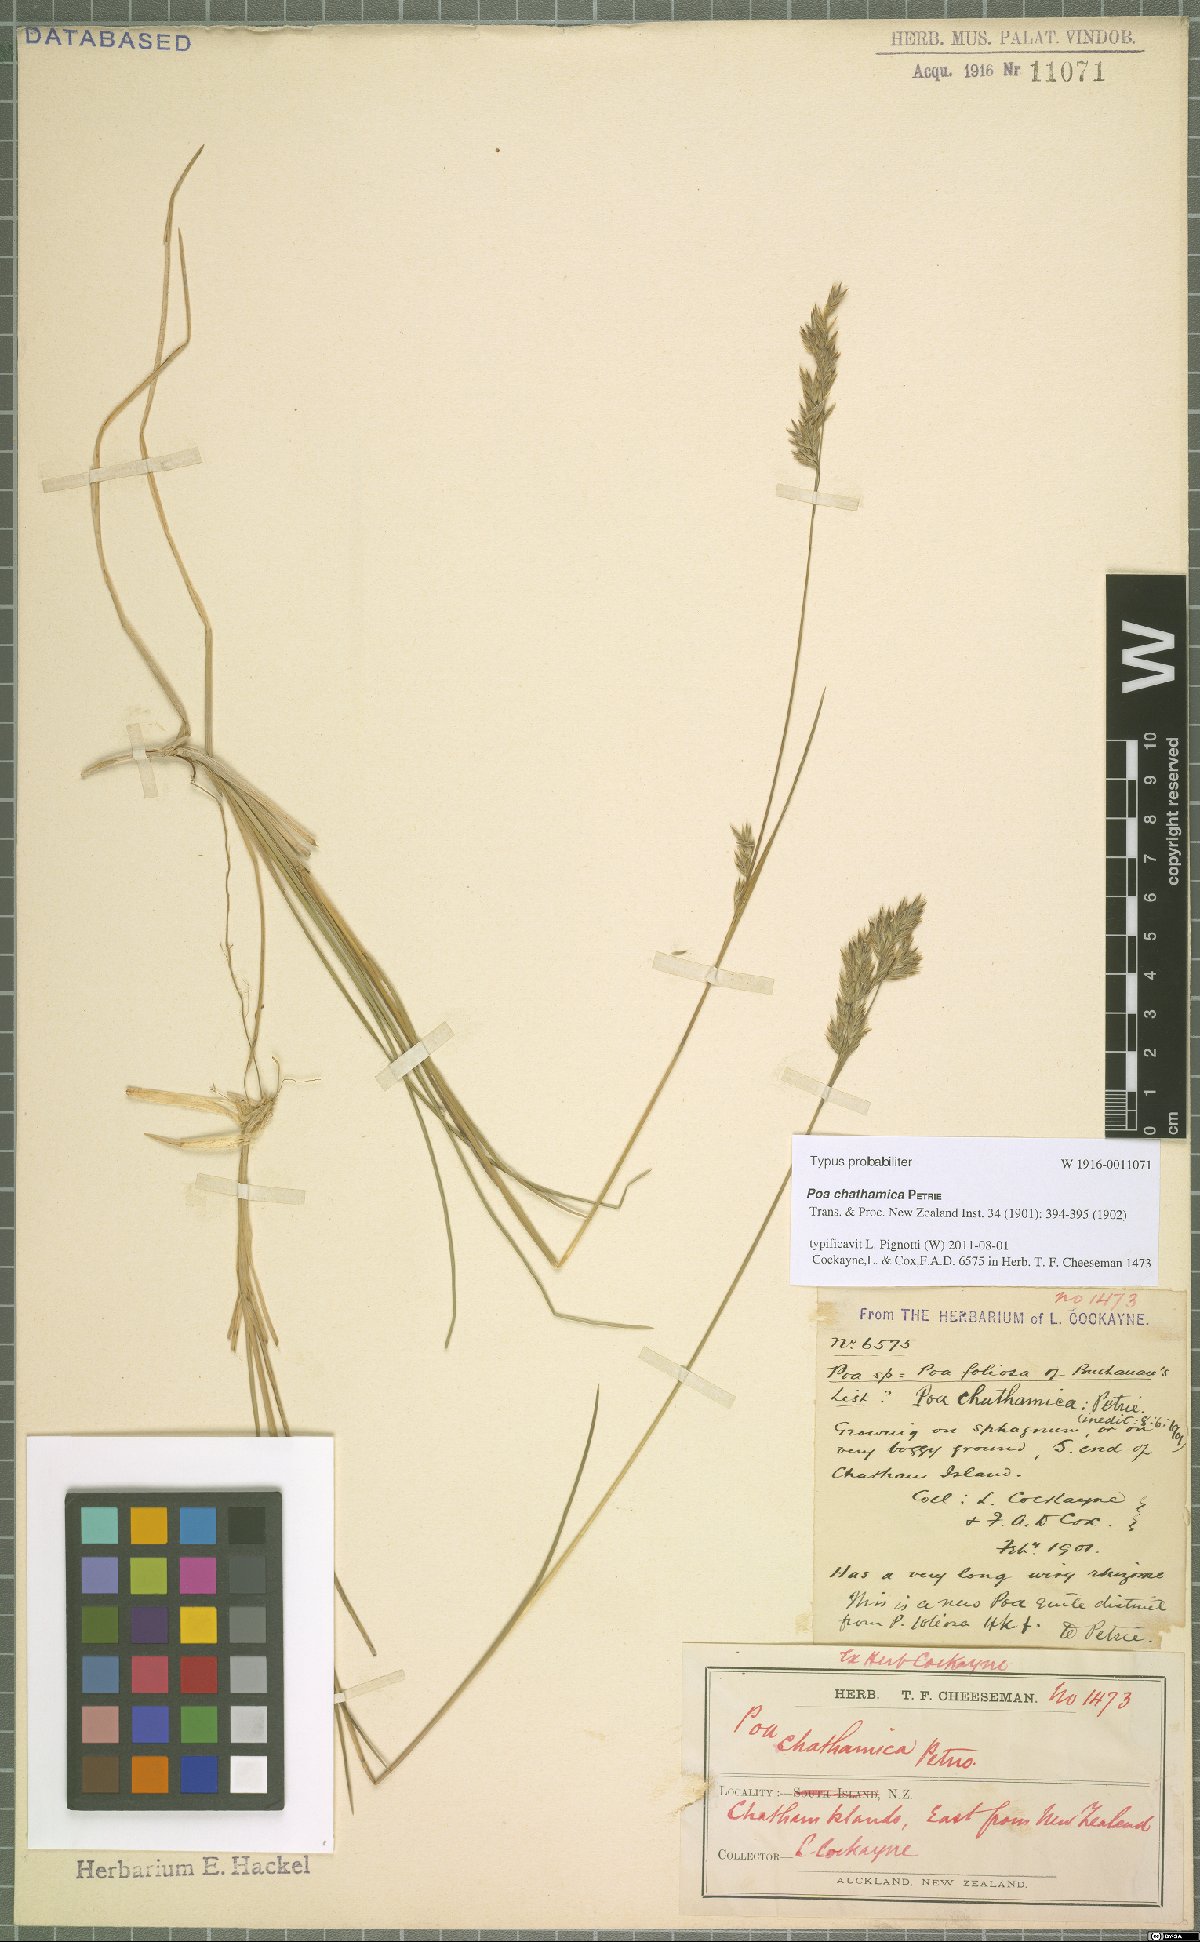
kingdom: Plantae
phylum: Tracheophyta
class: Liliopsida
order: Poales
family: Poaceae
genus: Poa
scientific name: Poa chathamica
